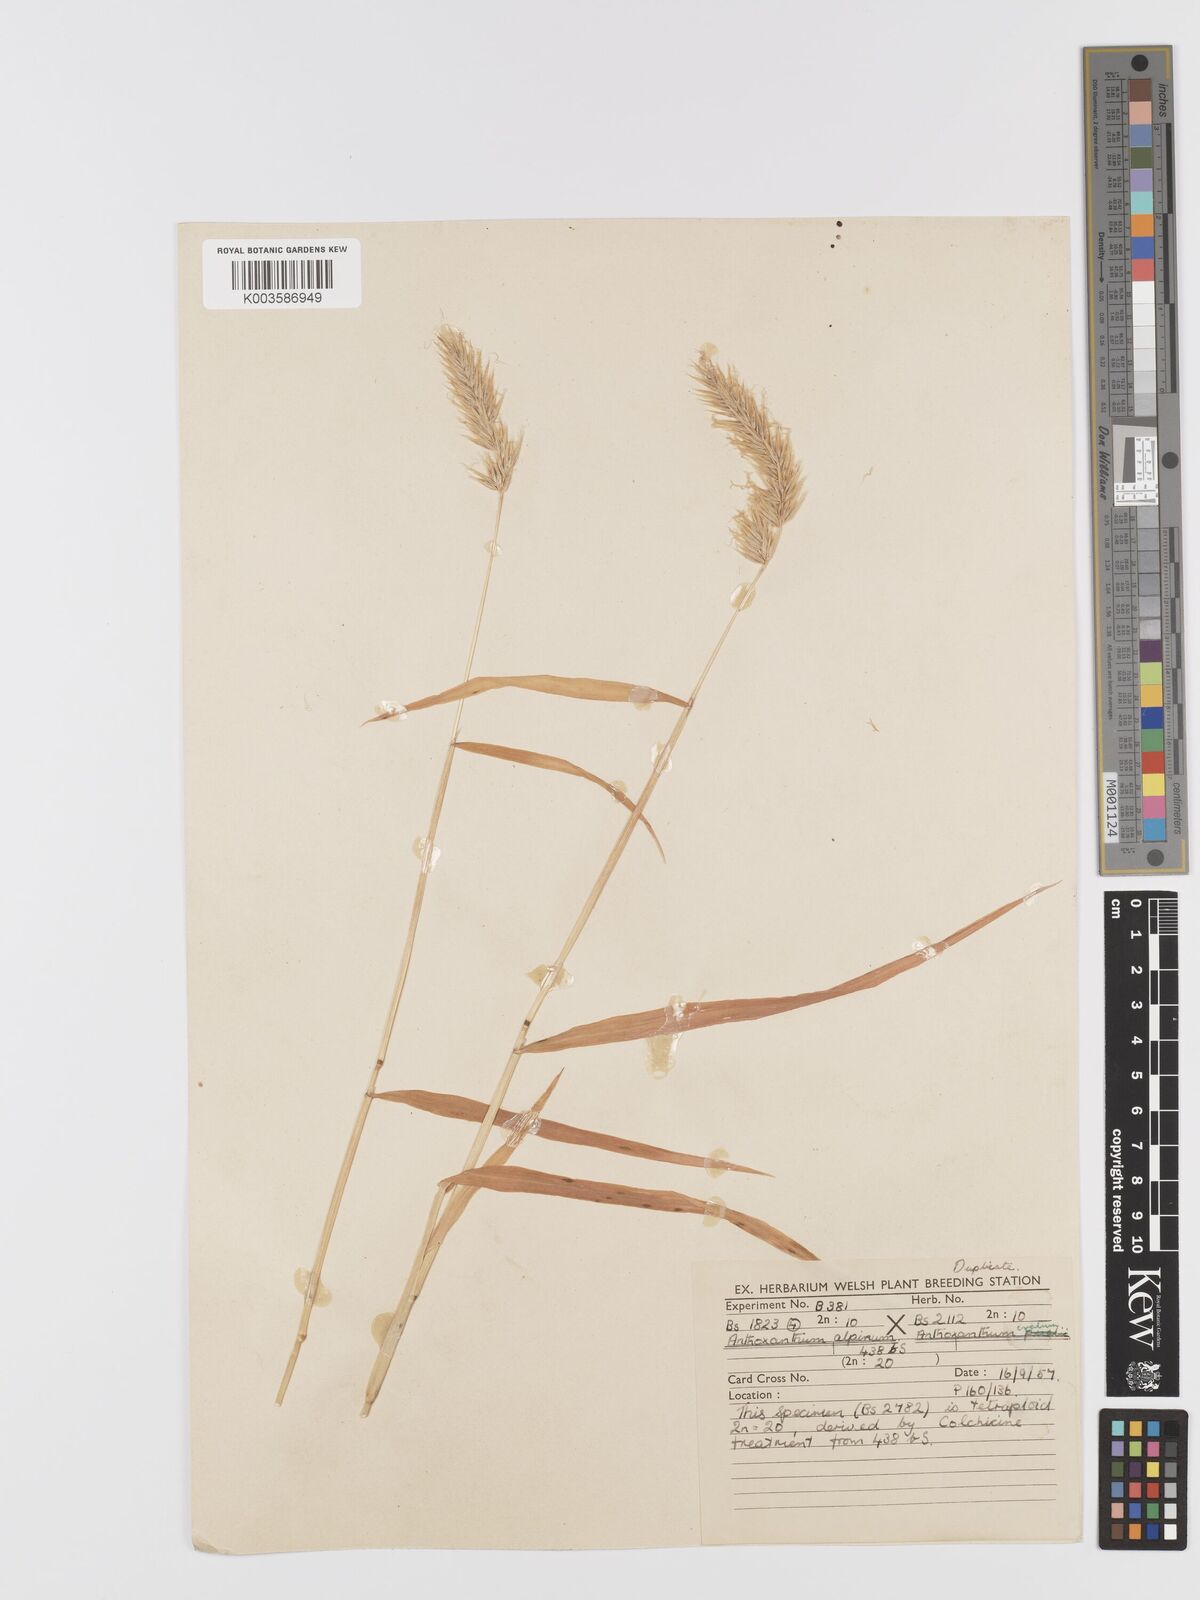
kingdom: Plantae
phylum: Tracheophyta
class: Liliopsida
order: Poales
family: Poaceae
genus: Anthoxanthum
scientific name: Anthoxanthum nipponicum
